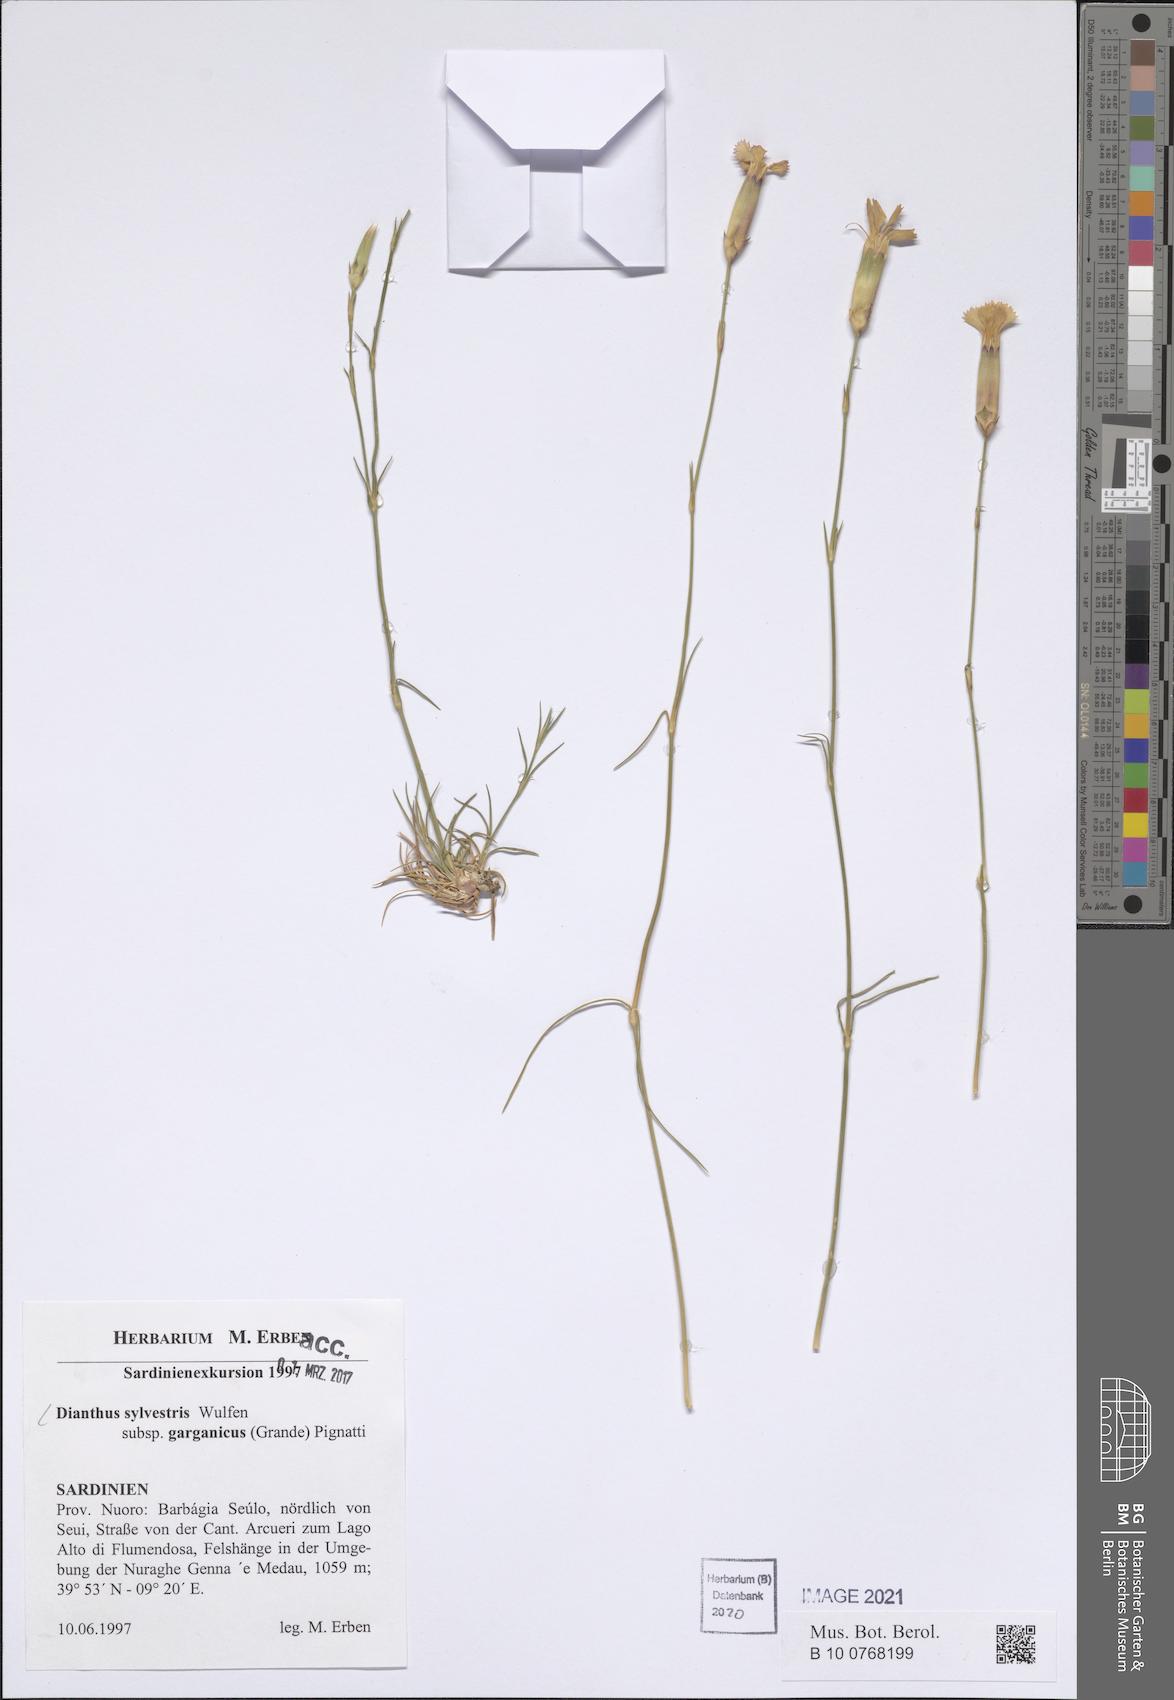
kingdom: Plantae
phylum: Tracheophyta
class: Magnoliopsida
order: Caryophyllales
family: Caryophyllaceae
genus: Dianthus
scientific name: Dianthus tarentinus
